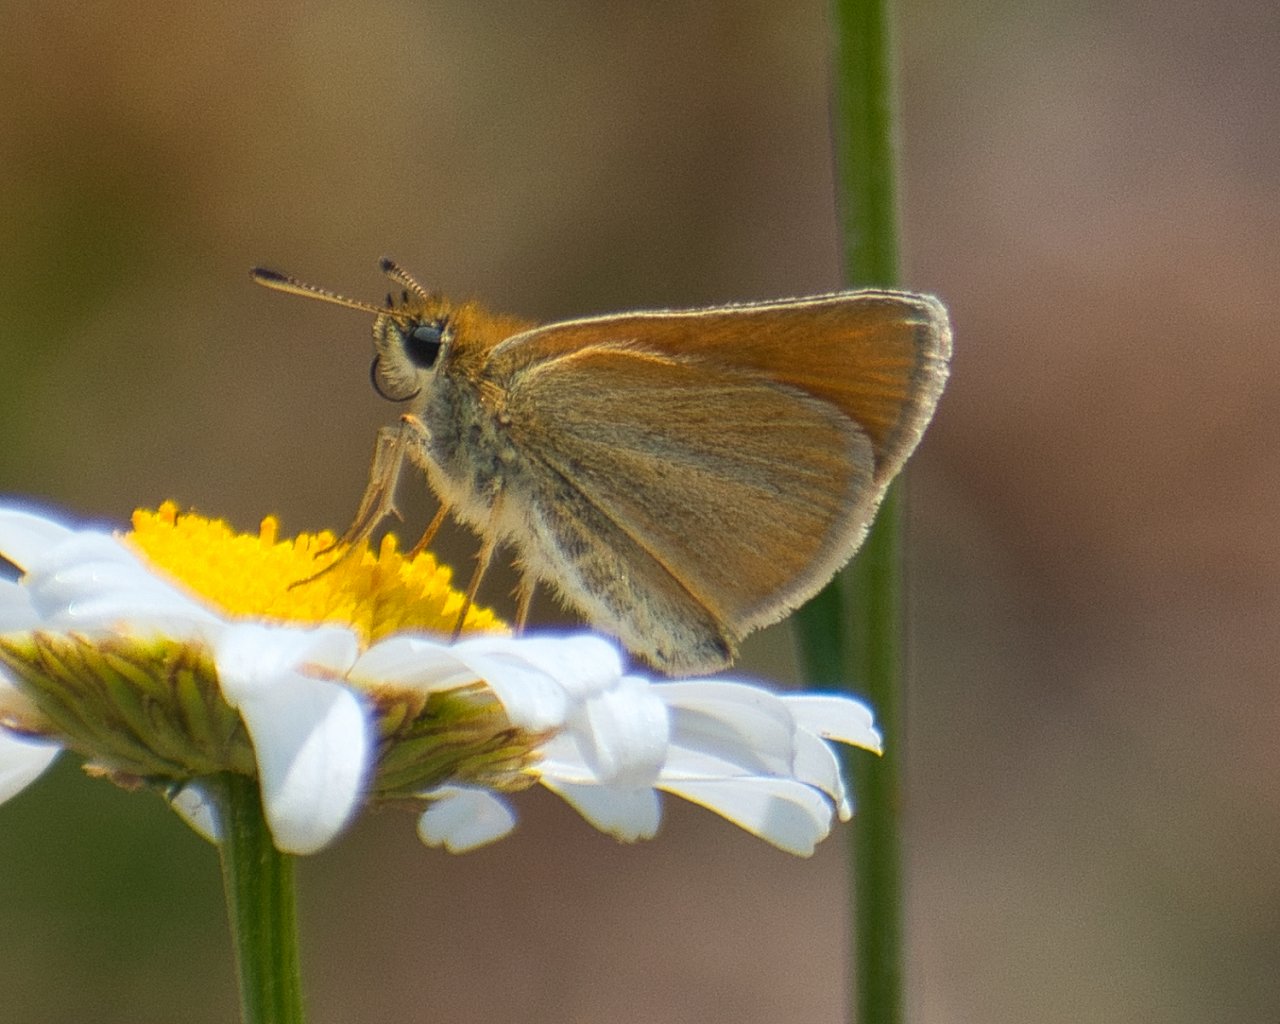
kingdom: Animalia
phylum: Arthropoda
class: Insecta
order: Lepidoptera
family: Hesperiidae
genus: Thymelicus
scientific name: Thymelicus lineola
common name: European Skipper
